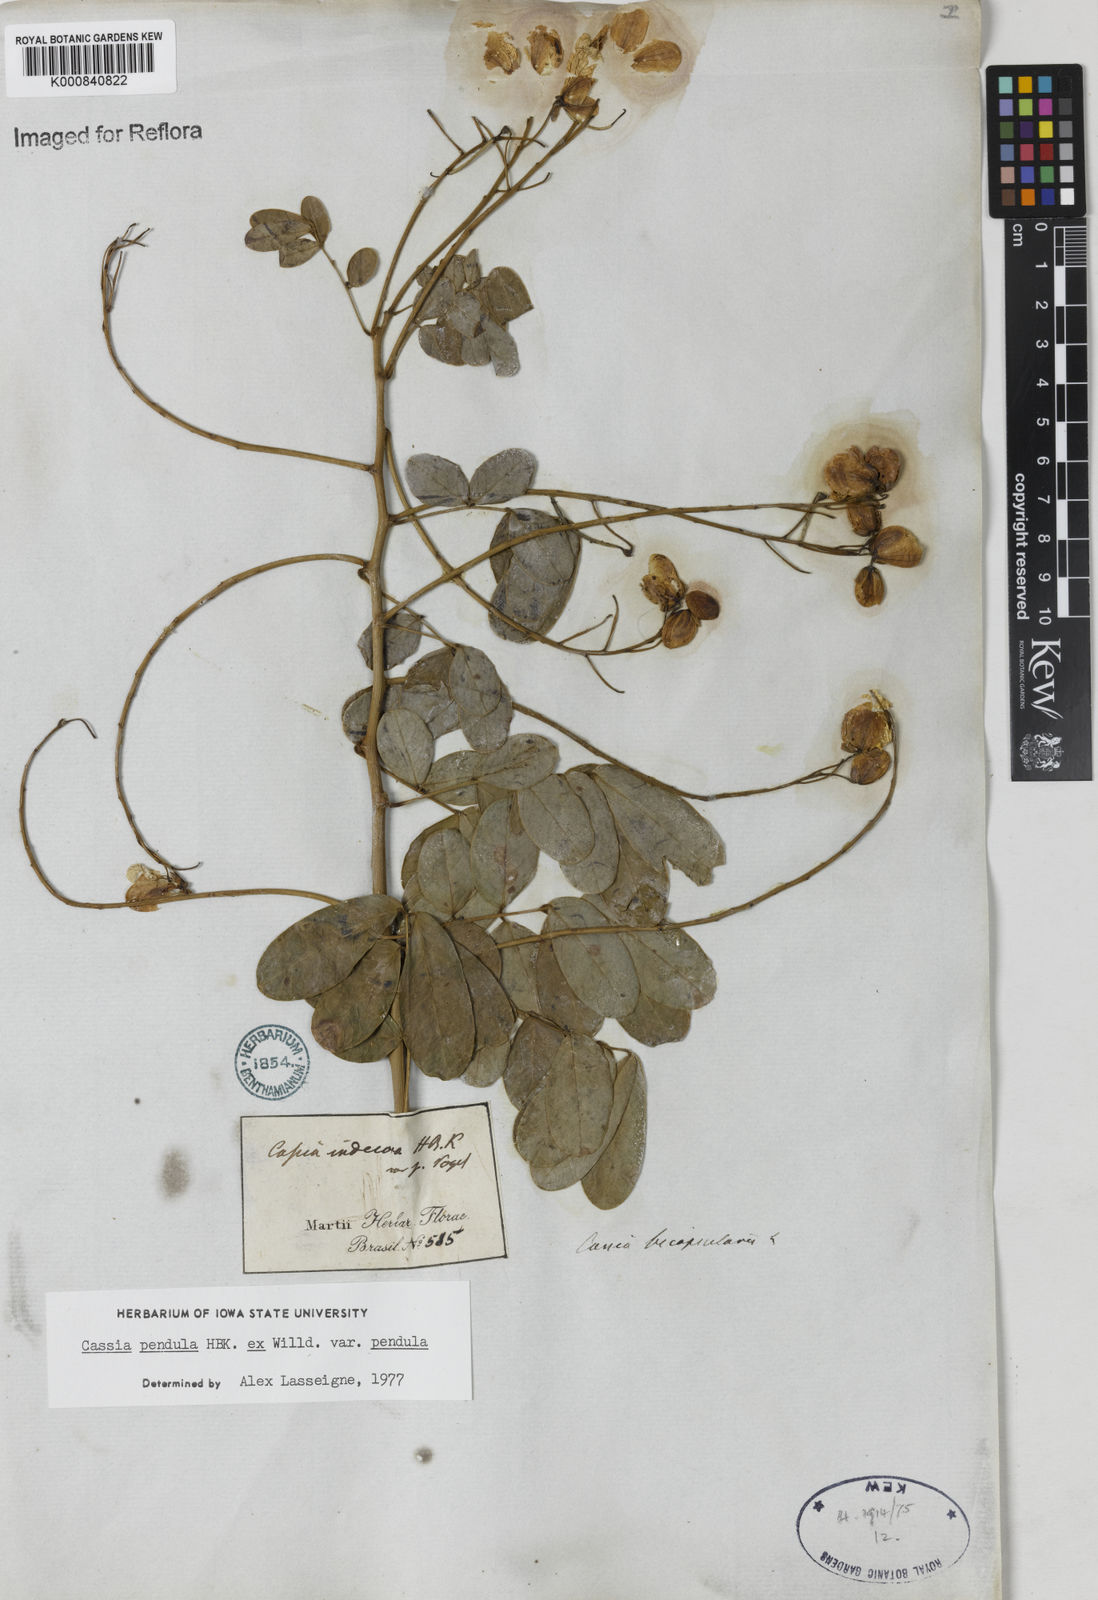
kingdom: Plantae
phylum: Tracheophyta
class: Magnoliopsida
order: Fabales
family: Fabaceae
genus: Senna
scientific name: Senna pendula
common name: Easter cassia
